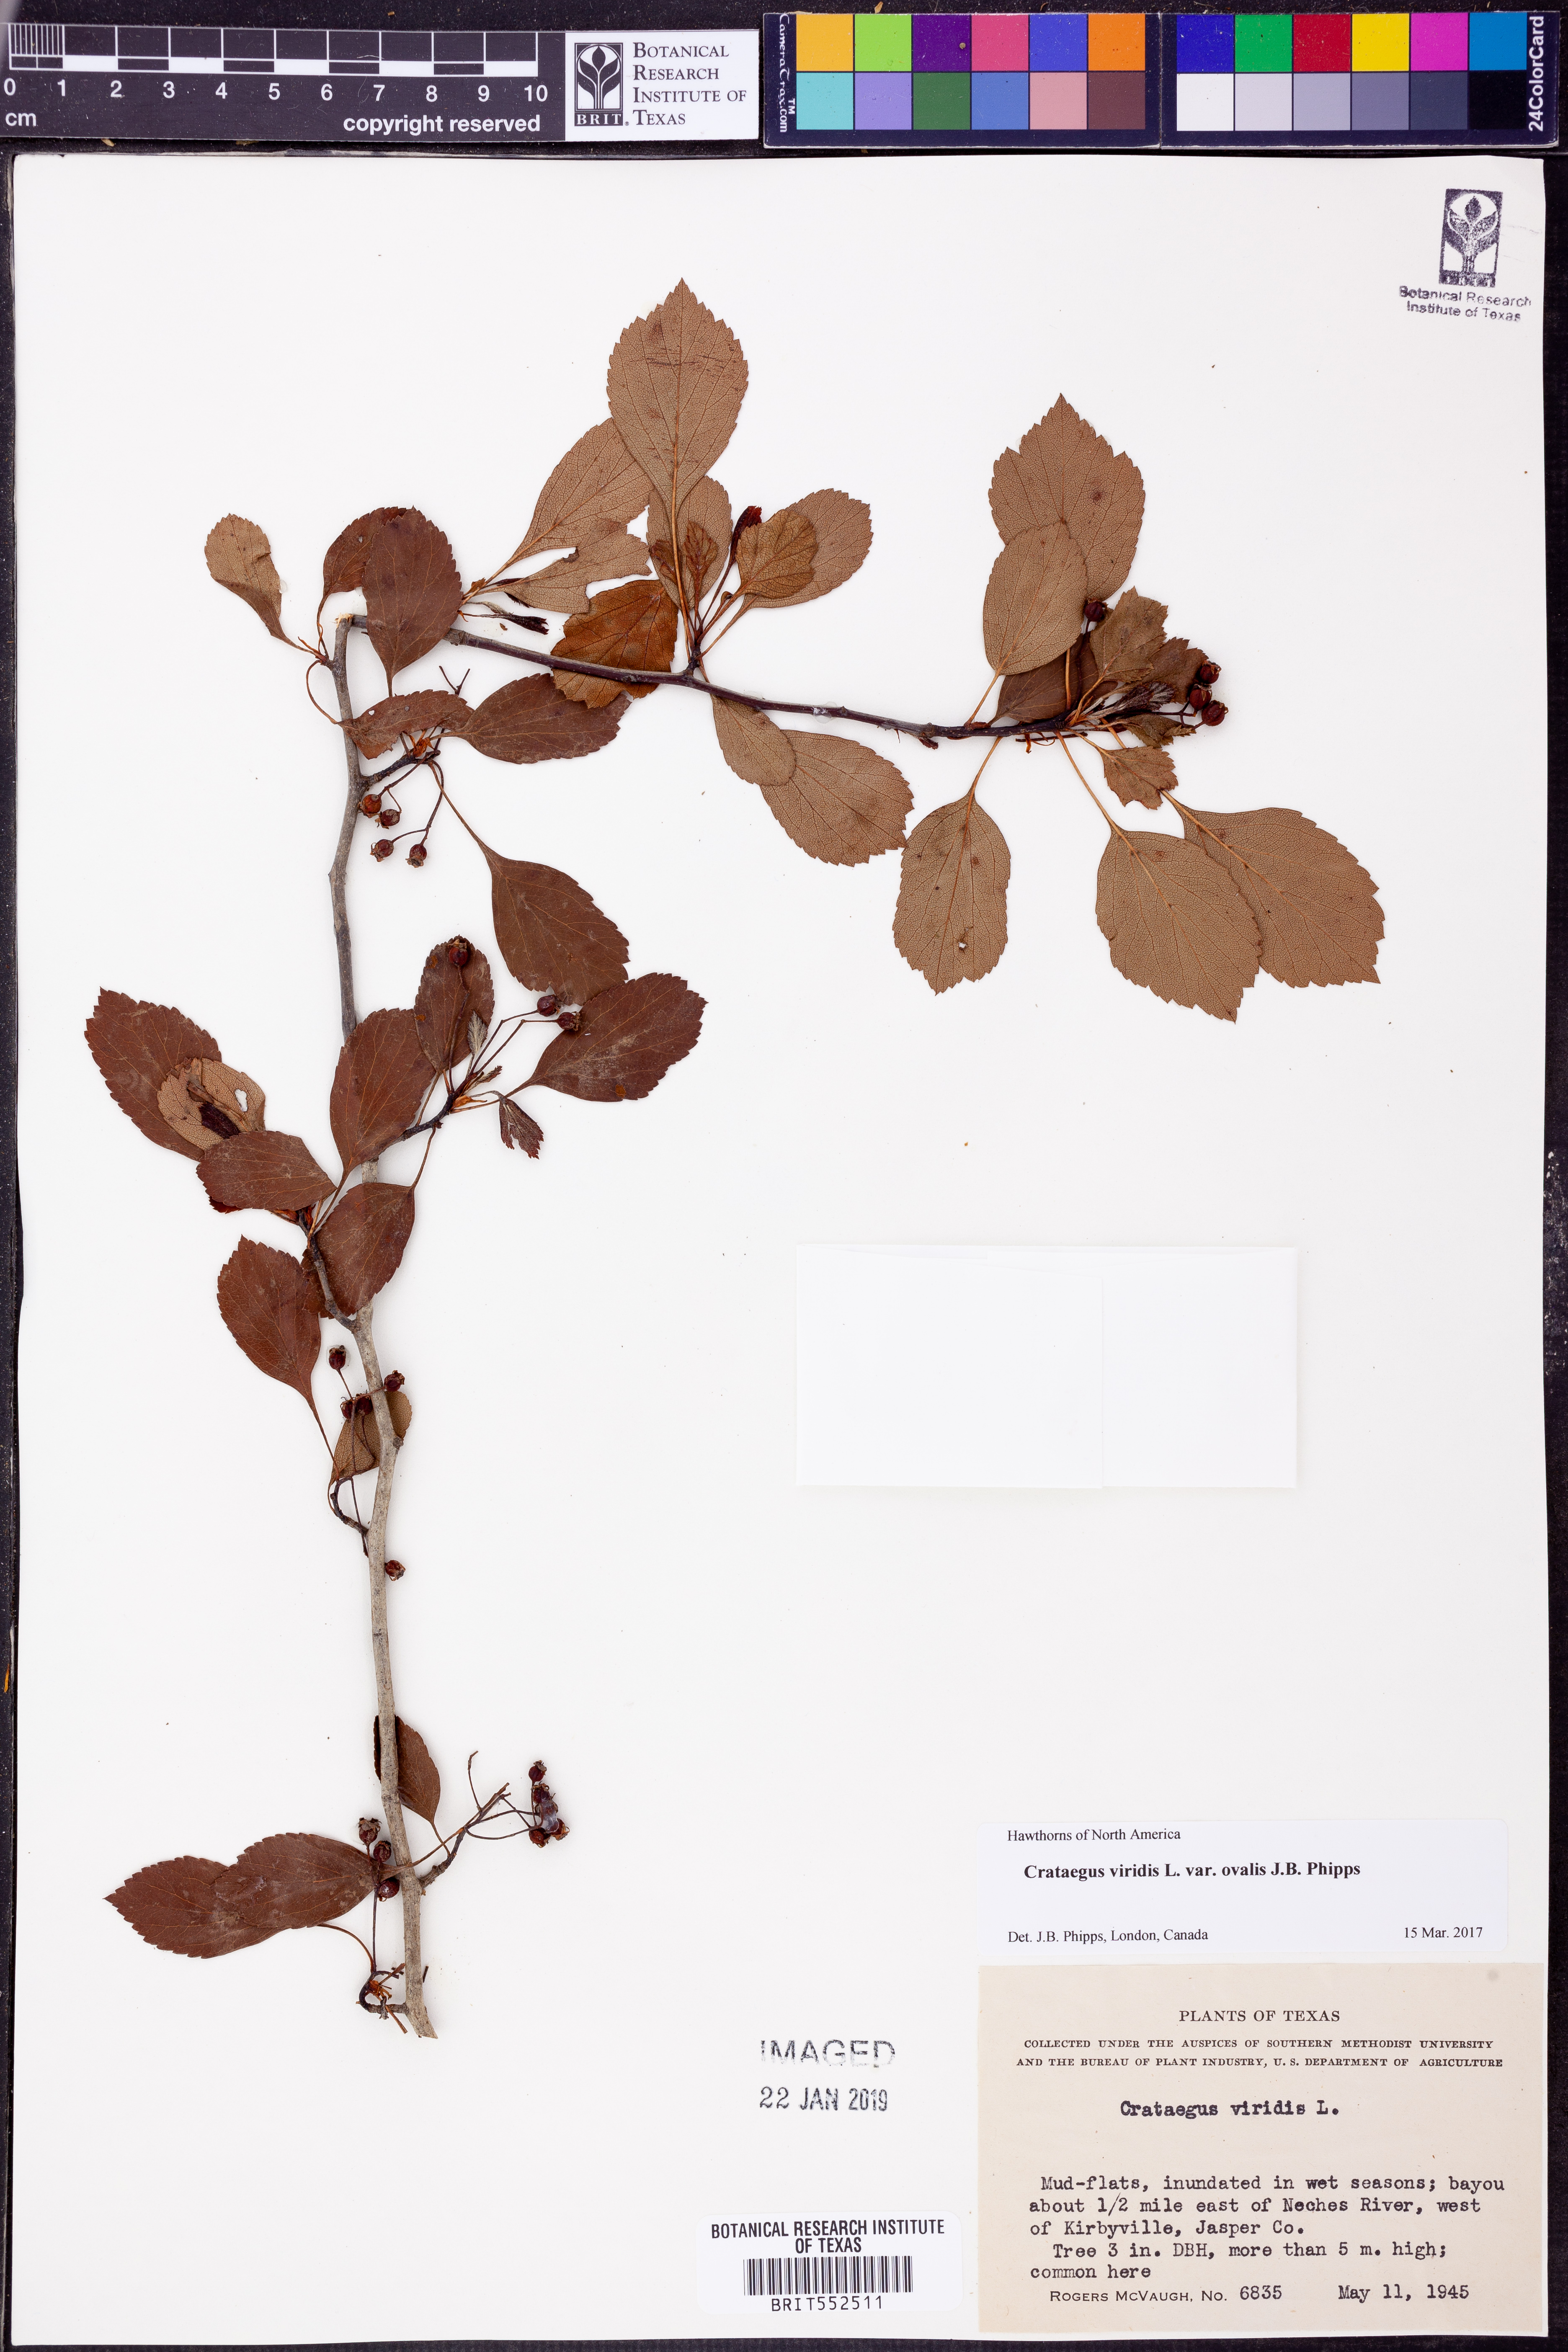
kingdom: Plantae
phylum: Tracheophyta
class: Magnoliopsida
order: Rosales
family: Rosaceae
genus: Crataegus
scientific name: Crataegus viridis
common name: Southernthorn
